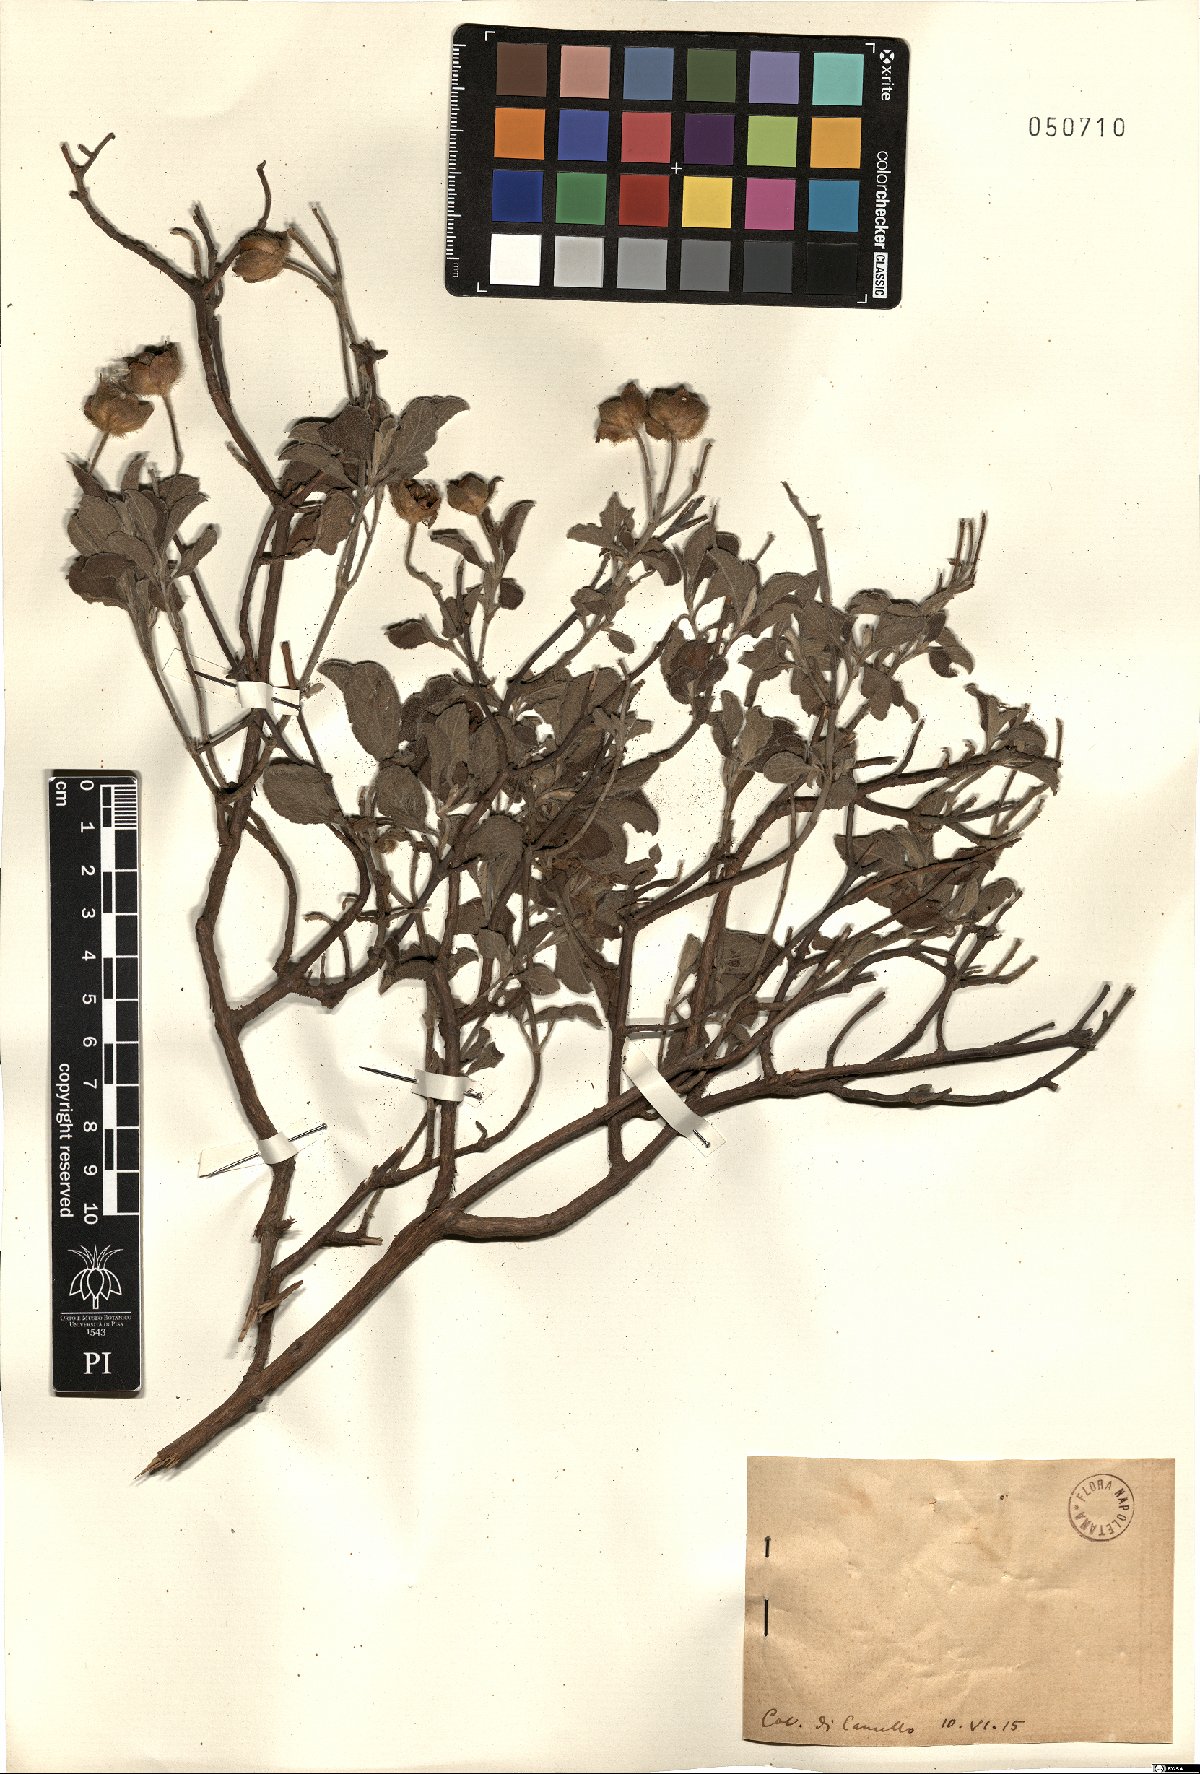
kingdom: Plantae
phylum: Tracheophyta
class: Magnoliopsida
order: Malvales
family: Cistaceae
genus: Cistus
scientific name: Cistus
